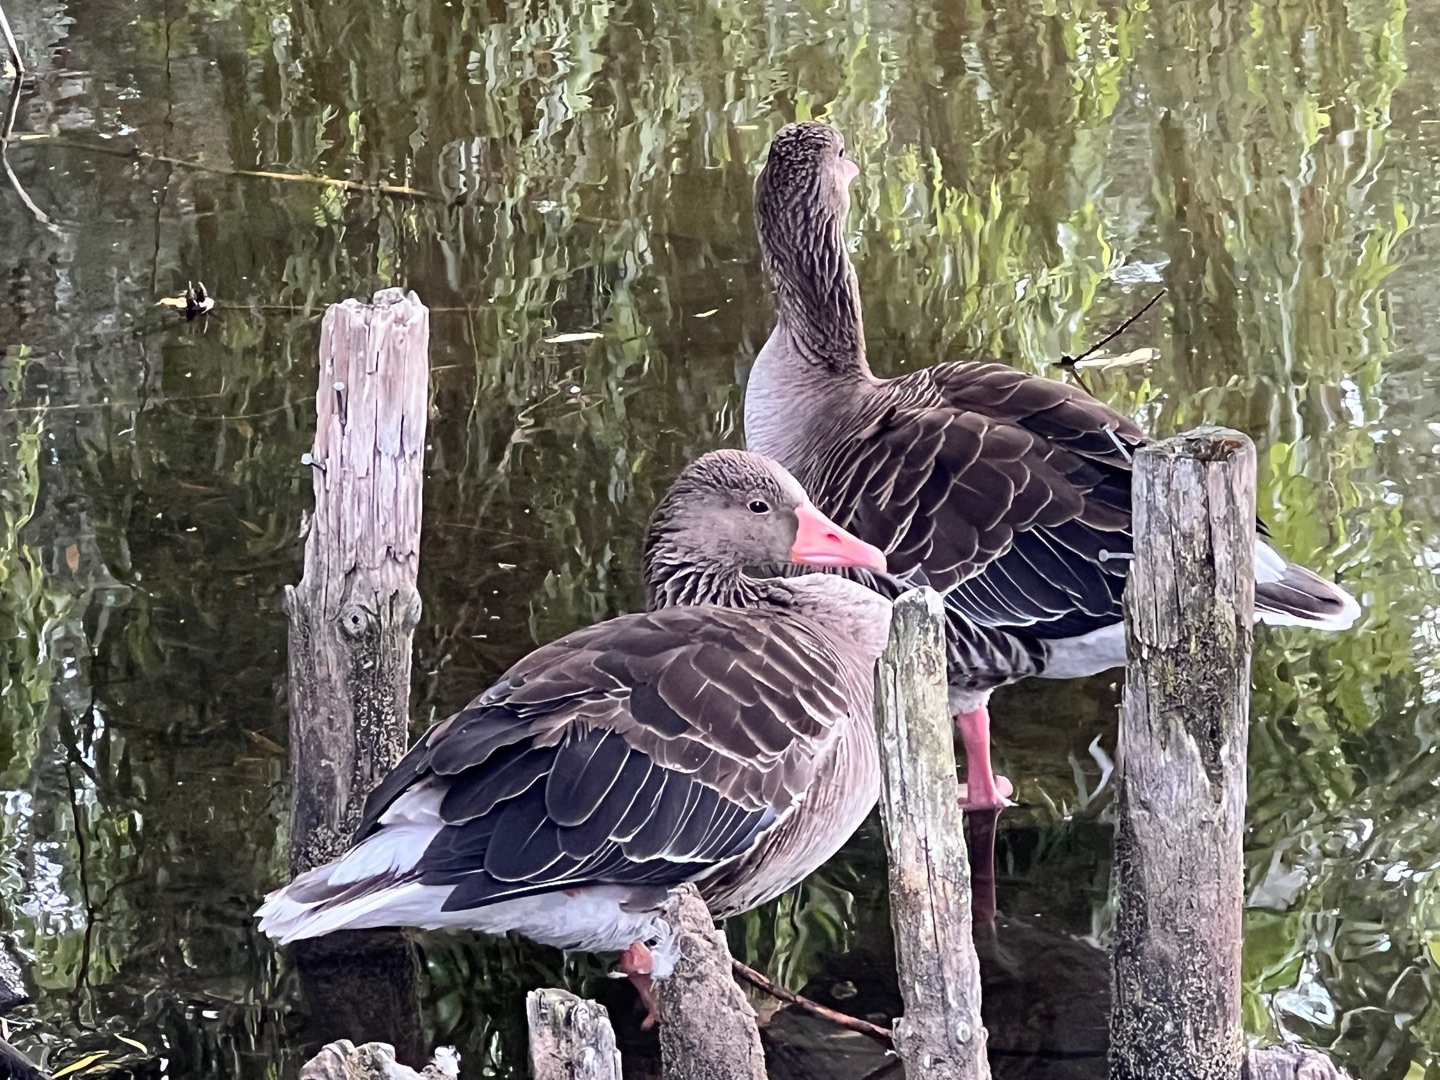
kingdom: Animalia
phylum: Chordata
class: Aves
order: Anseriformes
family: Anatidae
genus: Anser
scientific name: Anser anser
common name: Grågås
